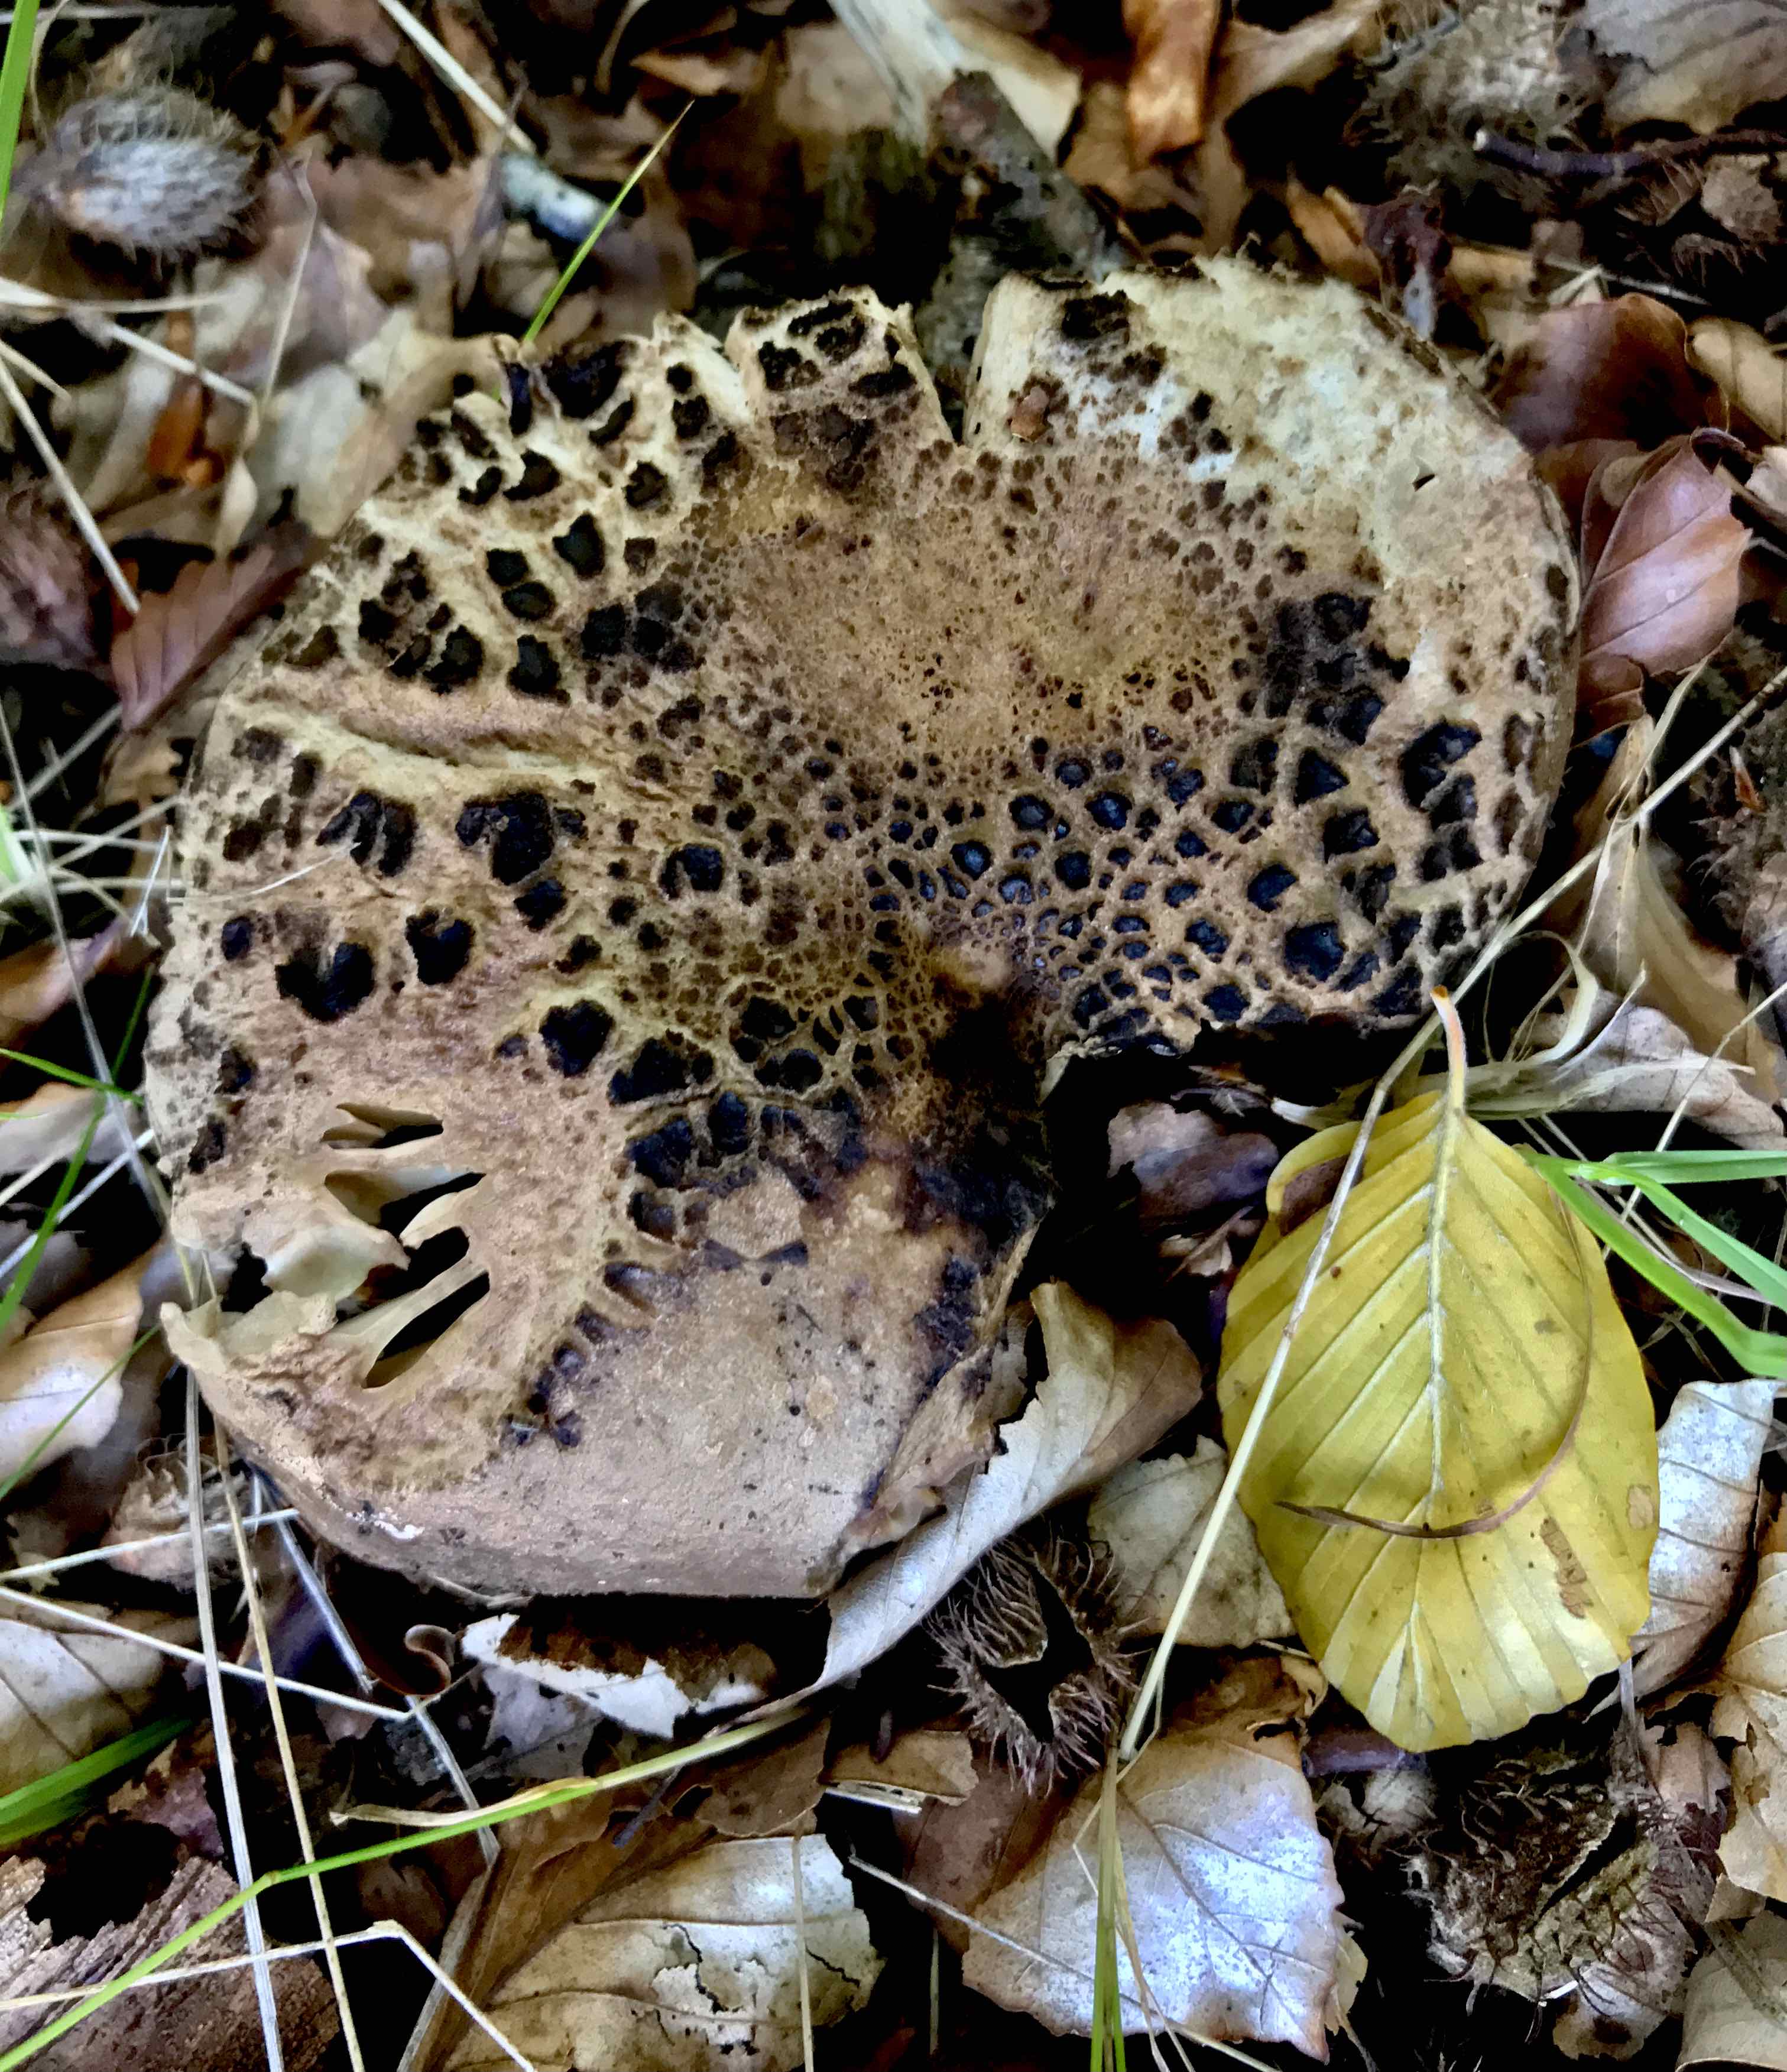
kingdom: Fungi
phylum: Basidiomycota
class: Agaricomycetes
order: Russulales
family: Russulaceae
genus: Russula
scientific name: Russula adusta
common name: sværtende skørhat
